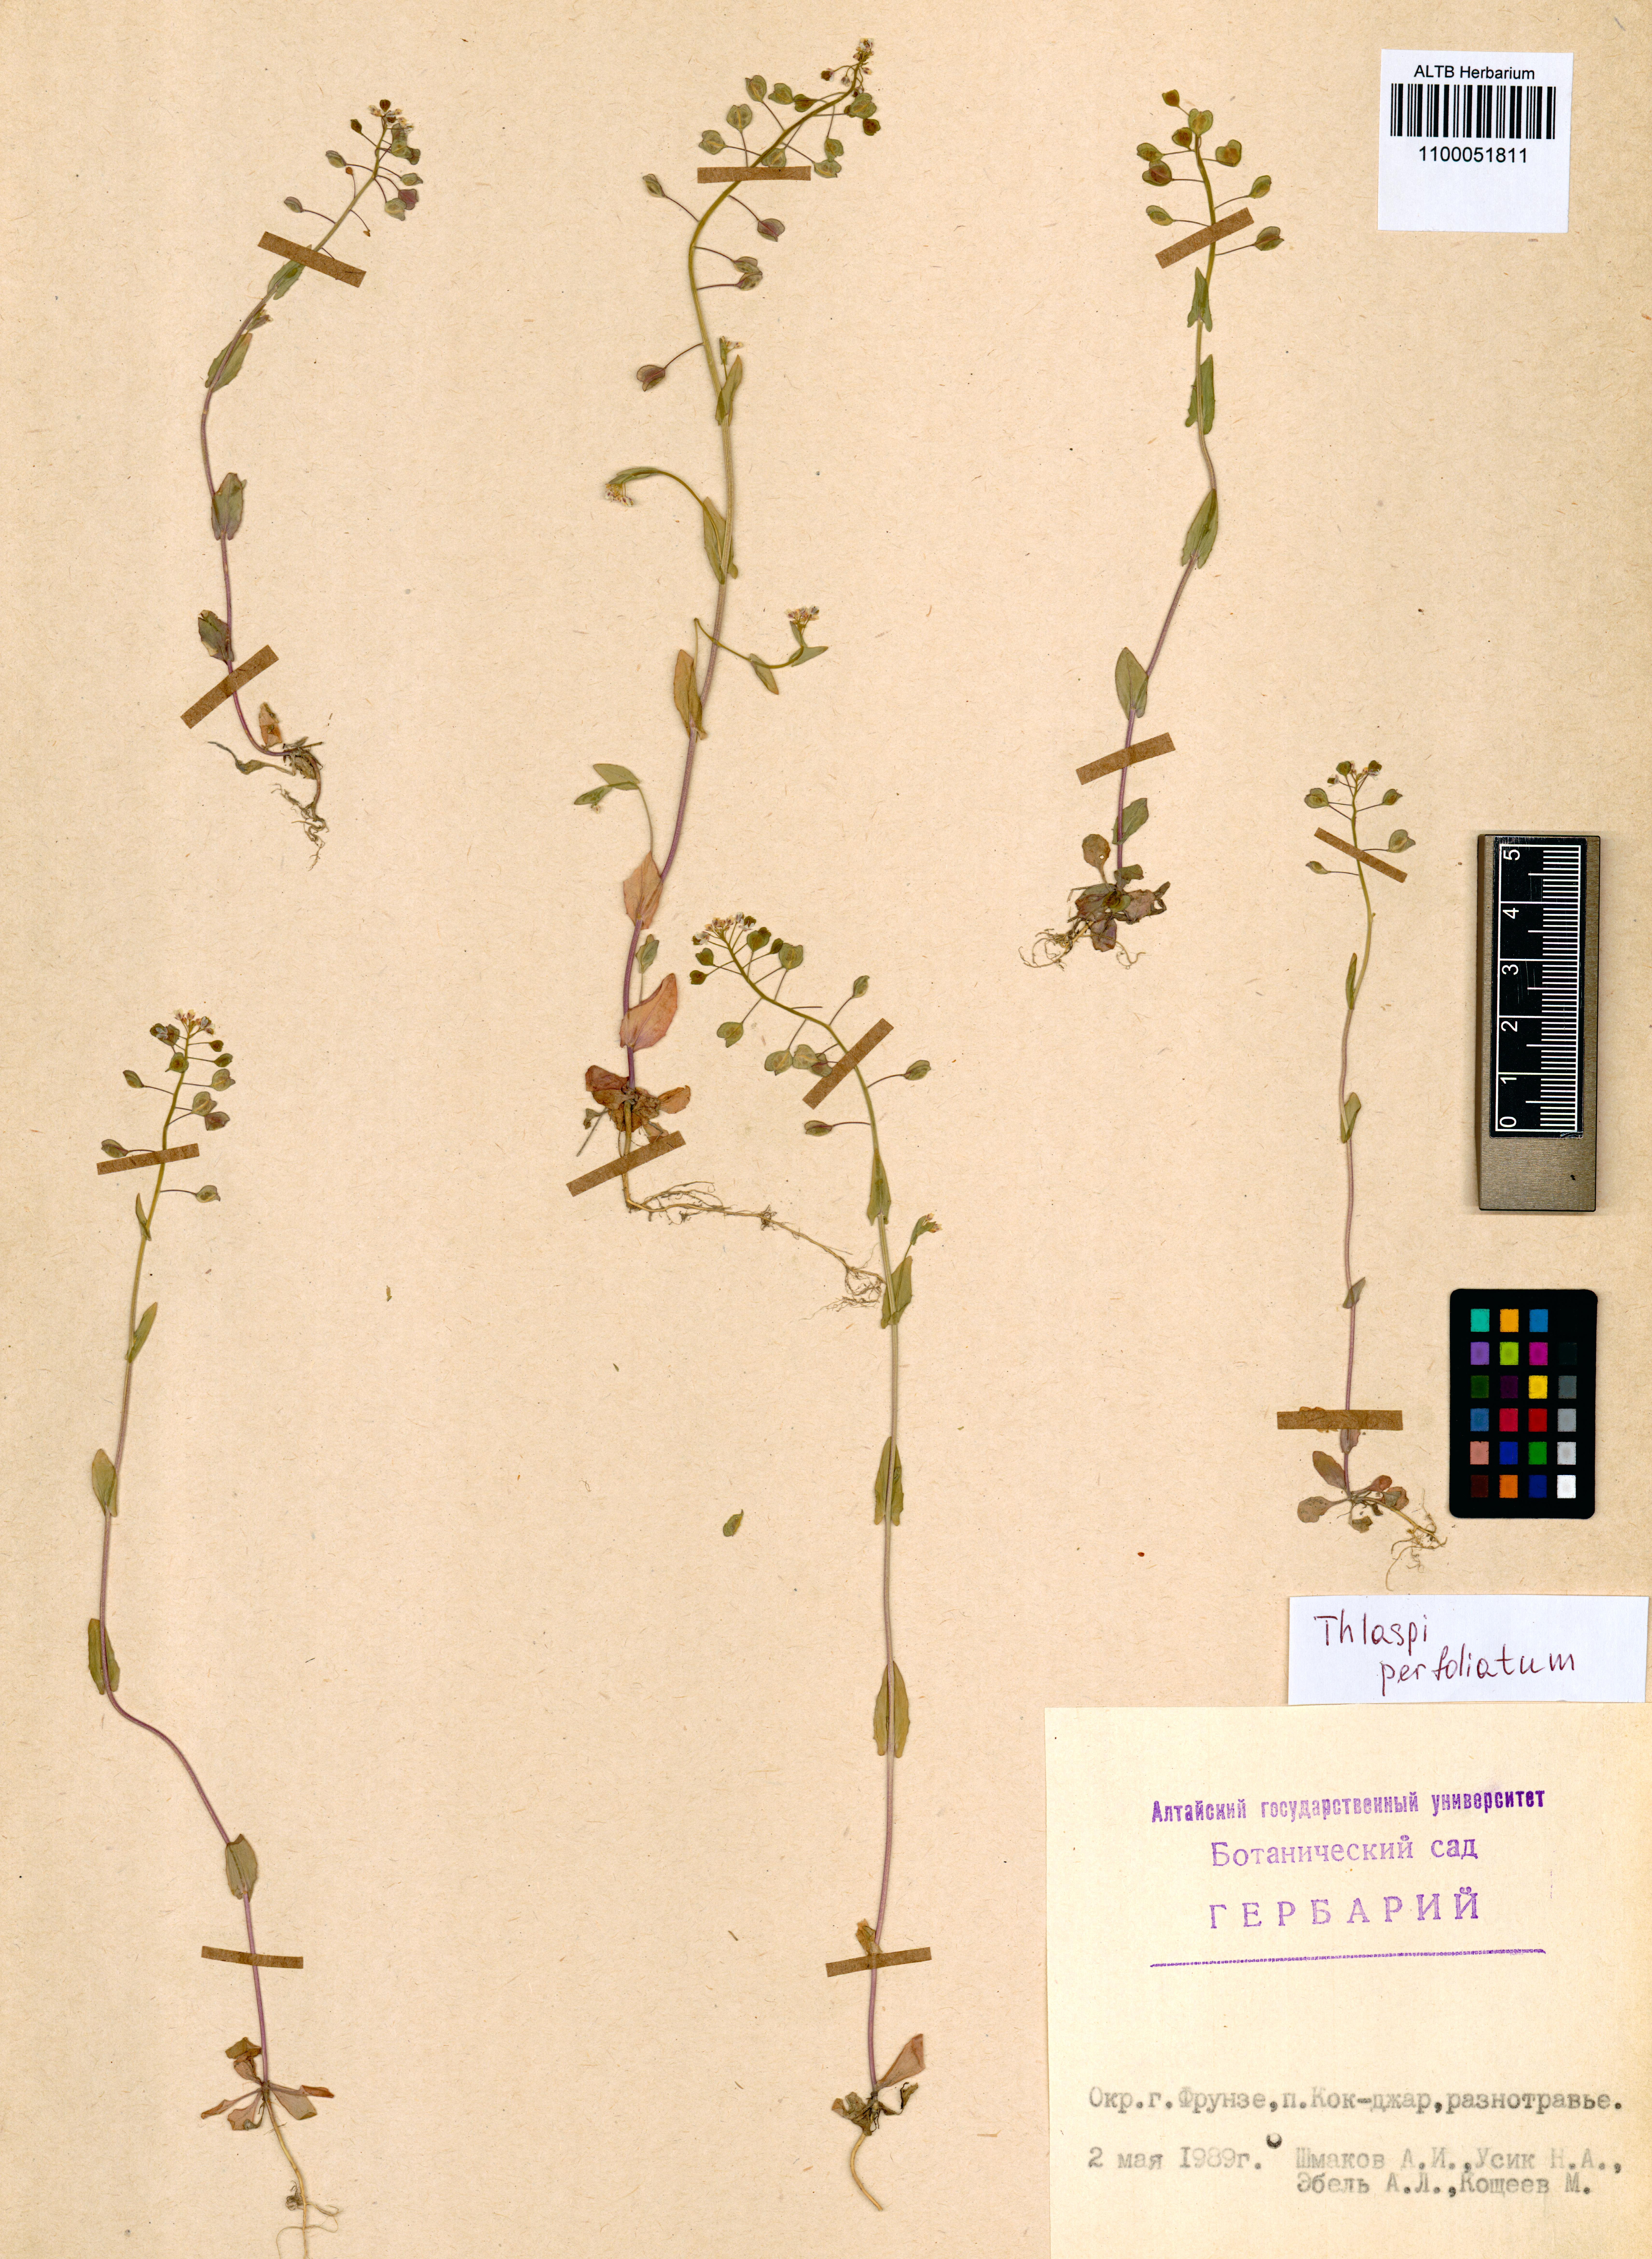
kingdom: Plantae
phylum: Tracheophyta
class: Magnoliopsida
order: Brassicales
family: Brassicaceae
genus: Noccaea
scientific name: Noccaea perfoliata
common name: Perfoliate pennycress
